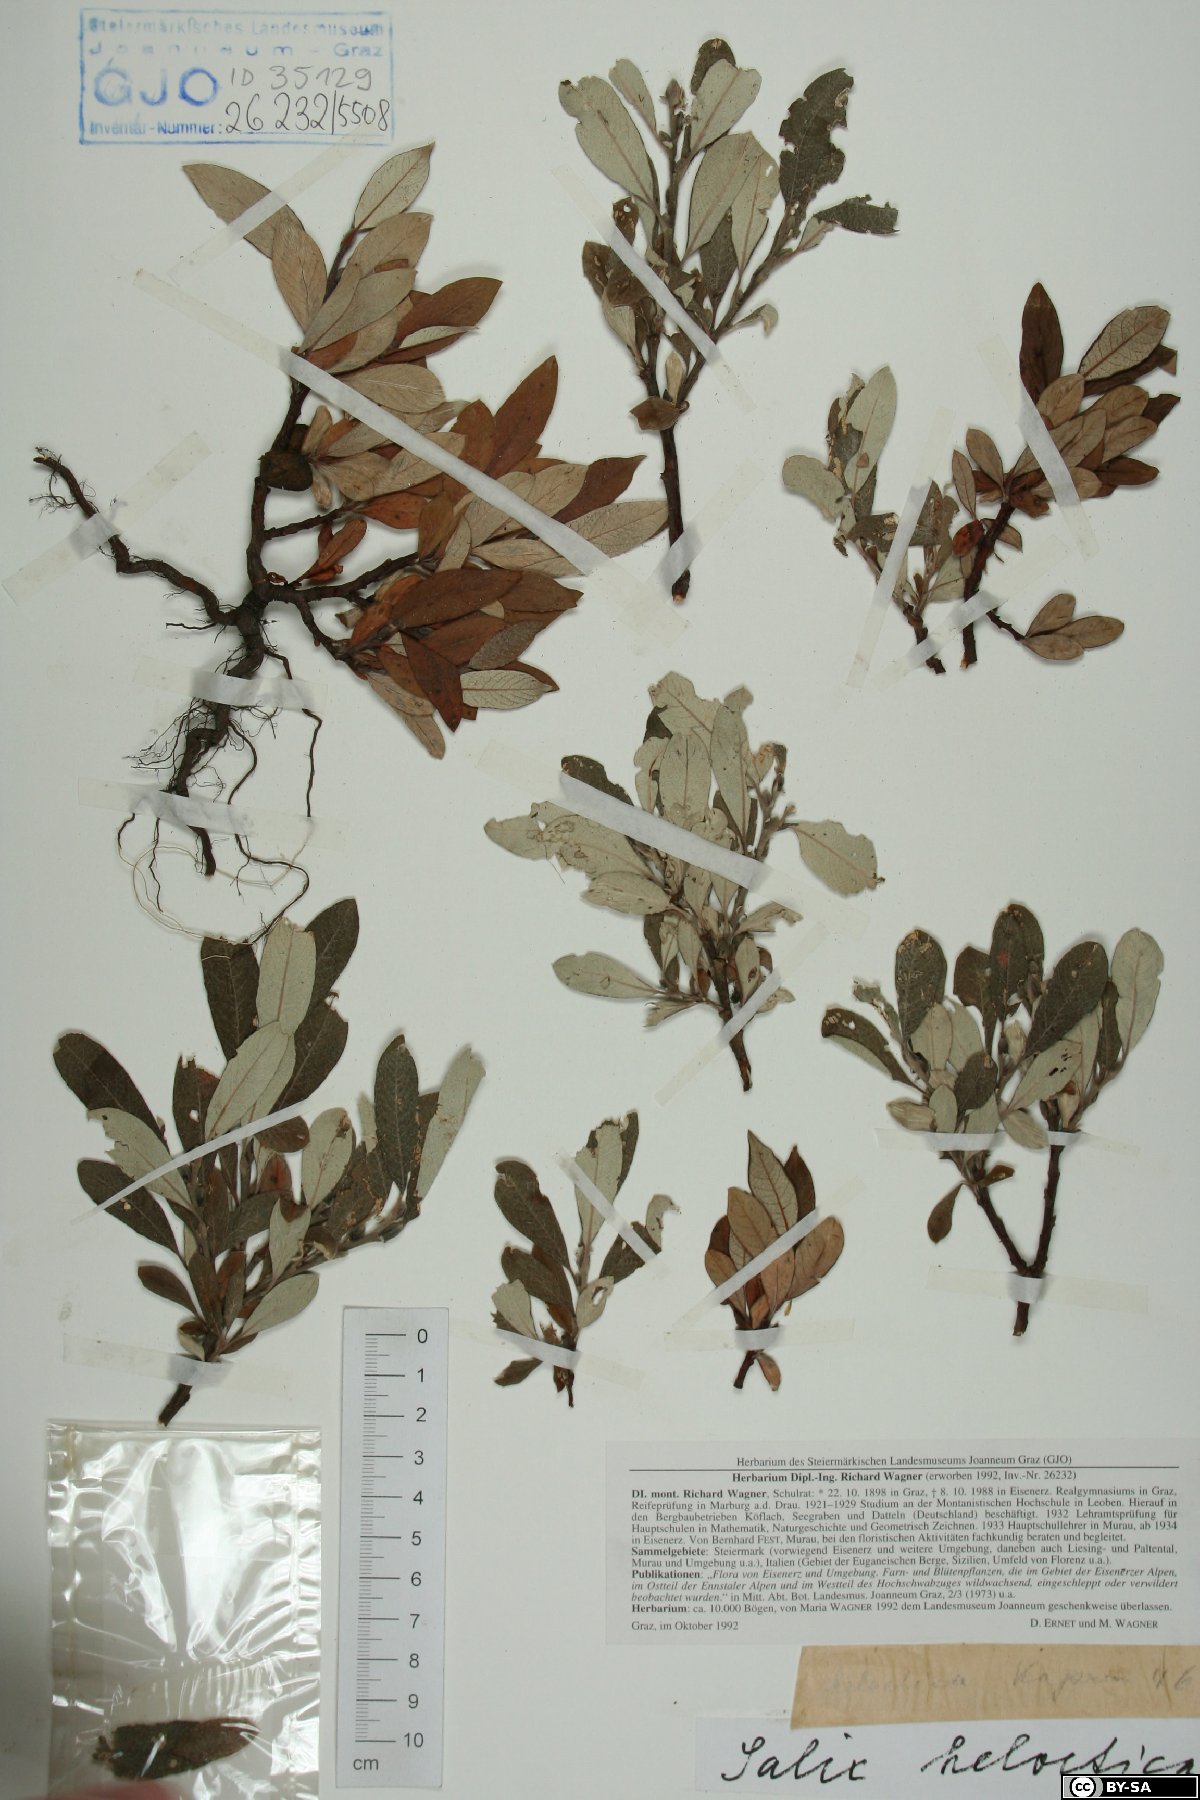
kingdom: Plantae
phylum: Tracheophyta
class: Magnoliopsida
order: Malpighiales
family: Salicaceae
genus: Salix
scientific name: Salix helvetica
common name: Swiss willow
